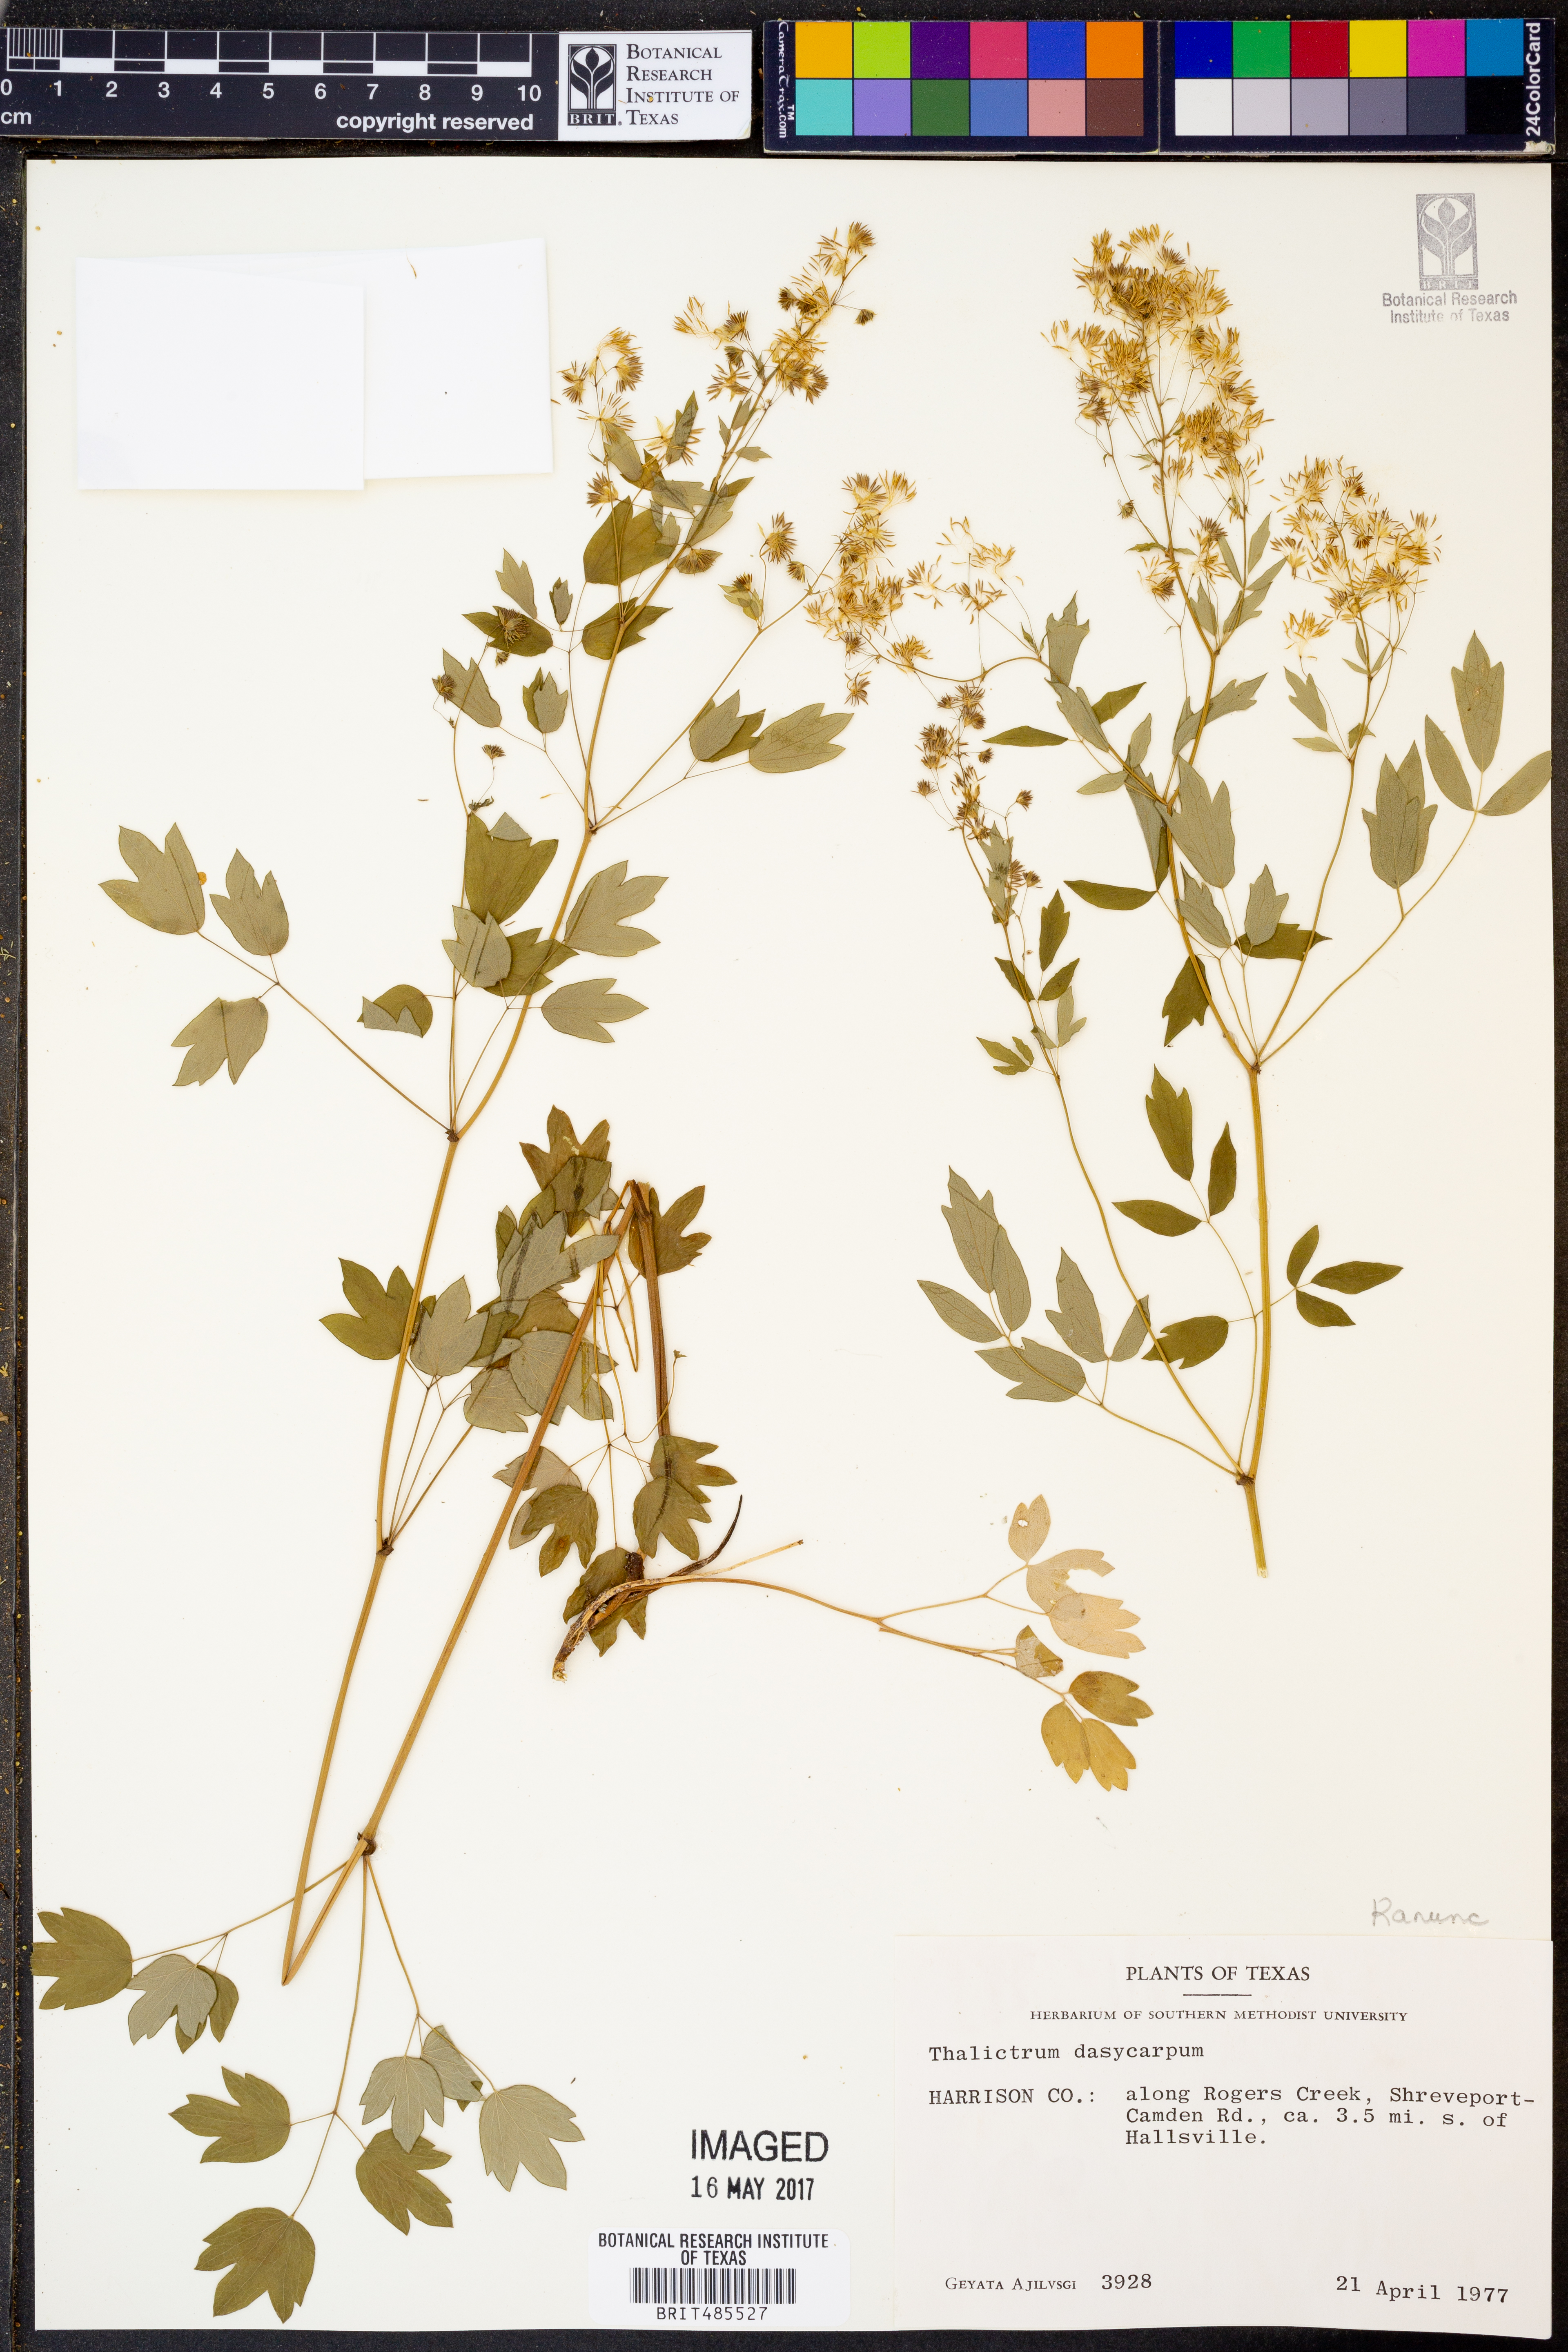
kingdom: Plantae
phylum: Tracheophyta
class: Magnoliopsida
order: Ranunculales
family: Ranunculaceae
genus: Thalictrum
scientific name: Thalictrum dasycarpum
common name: Purple meadow-rue
